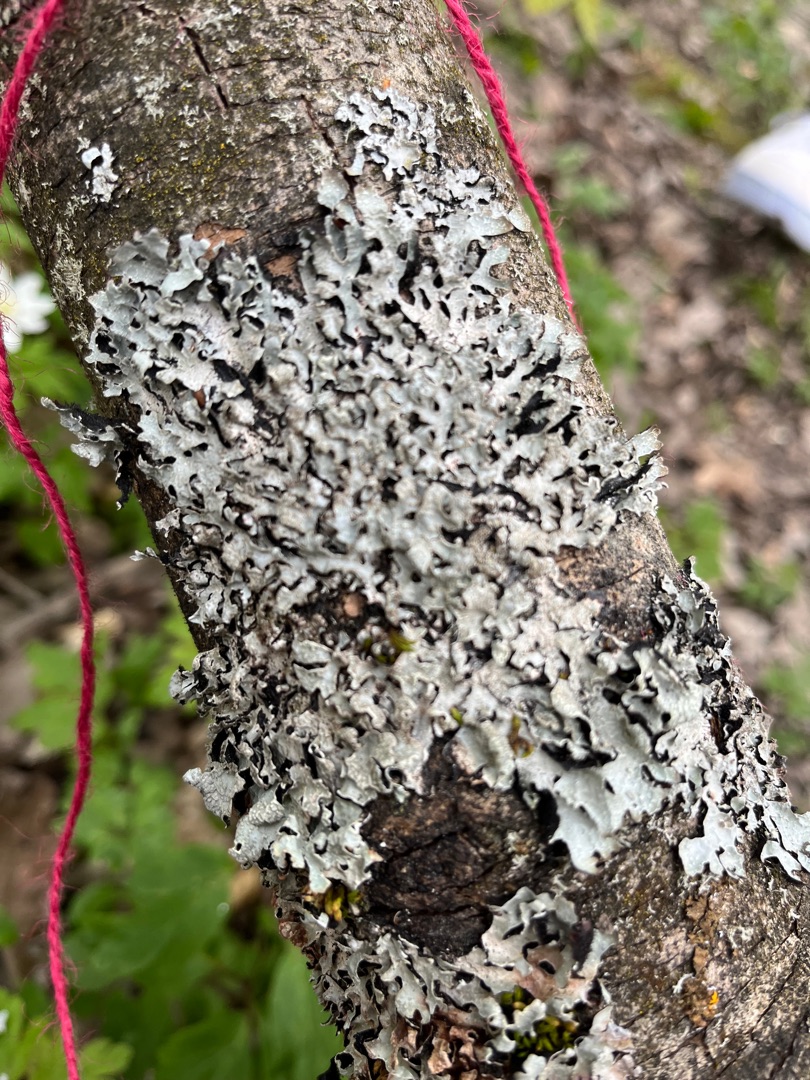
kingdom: Fungi
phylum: Ascomycota
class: Lecanoromycetes
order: Lecanorales
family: Parmeliaceae
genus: Parmelia
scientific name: Parmelia sulcata
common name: Rynket skållav
